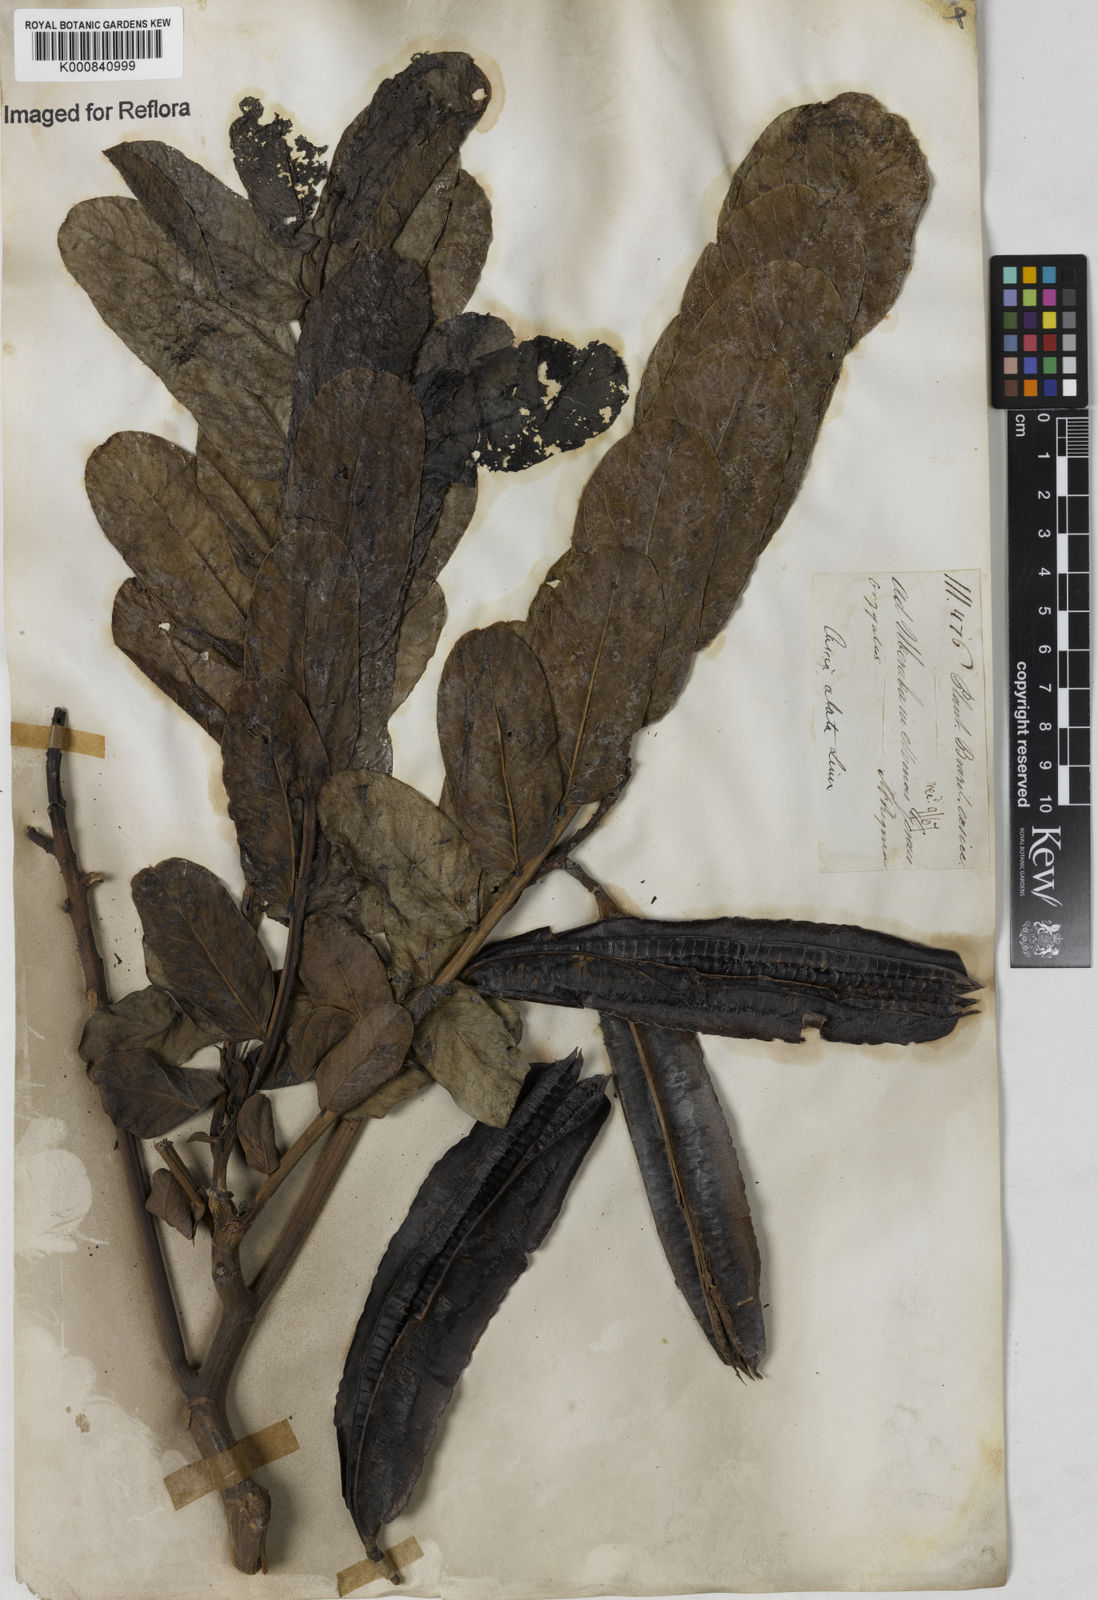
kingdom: Plantae
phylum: Tracheophyta
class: Magnoliopsida
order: Fabales
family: Fabaceae
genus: Senna
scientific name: Senna alata
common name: Emperor's candlesticks
